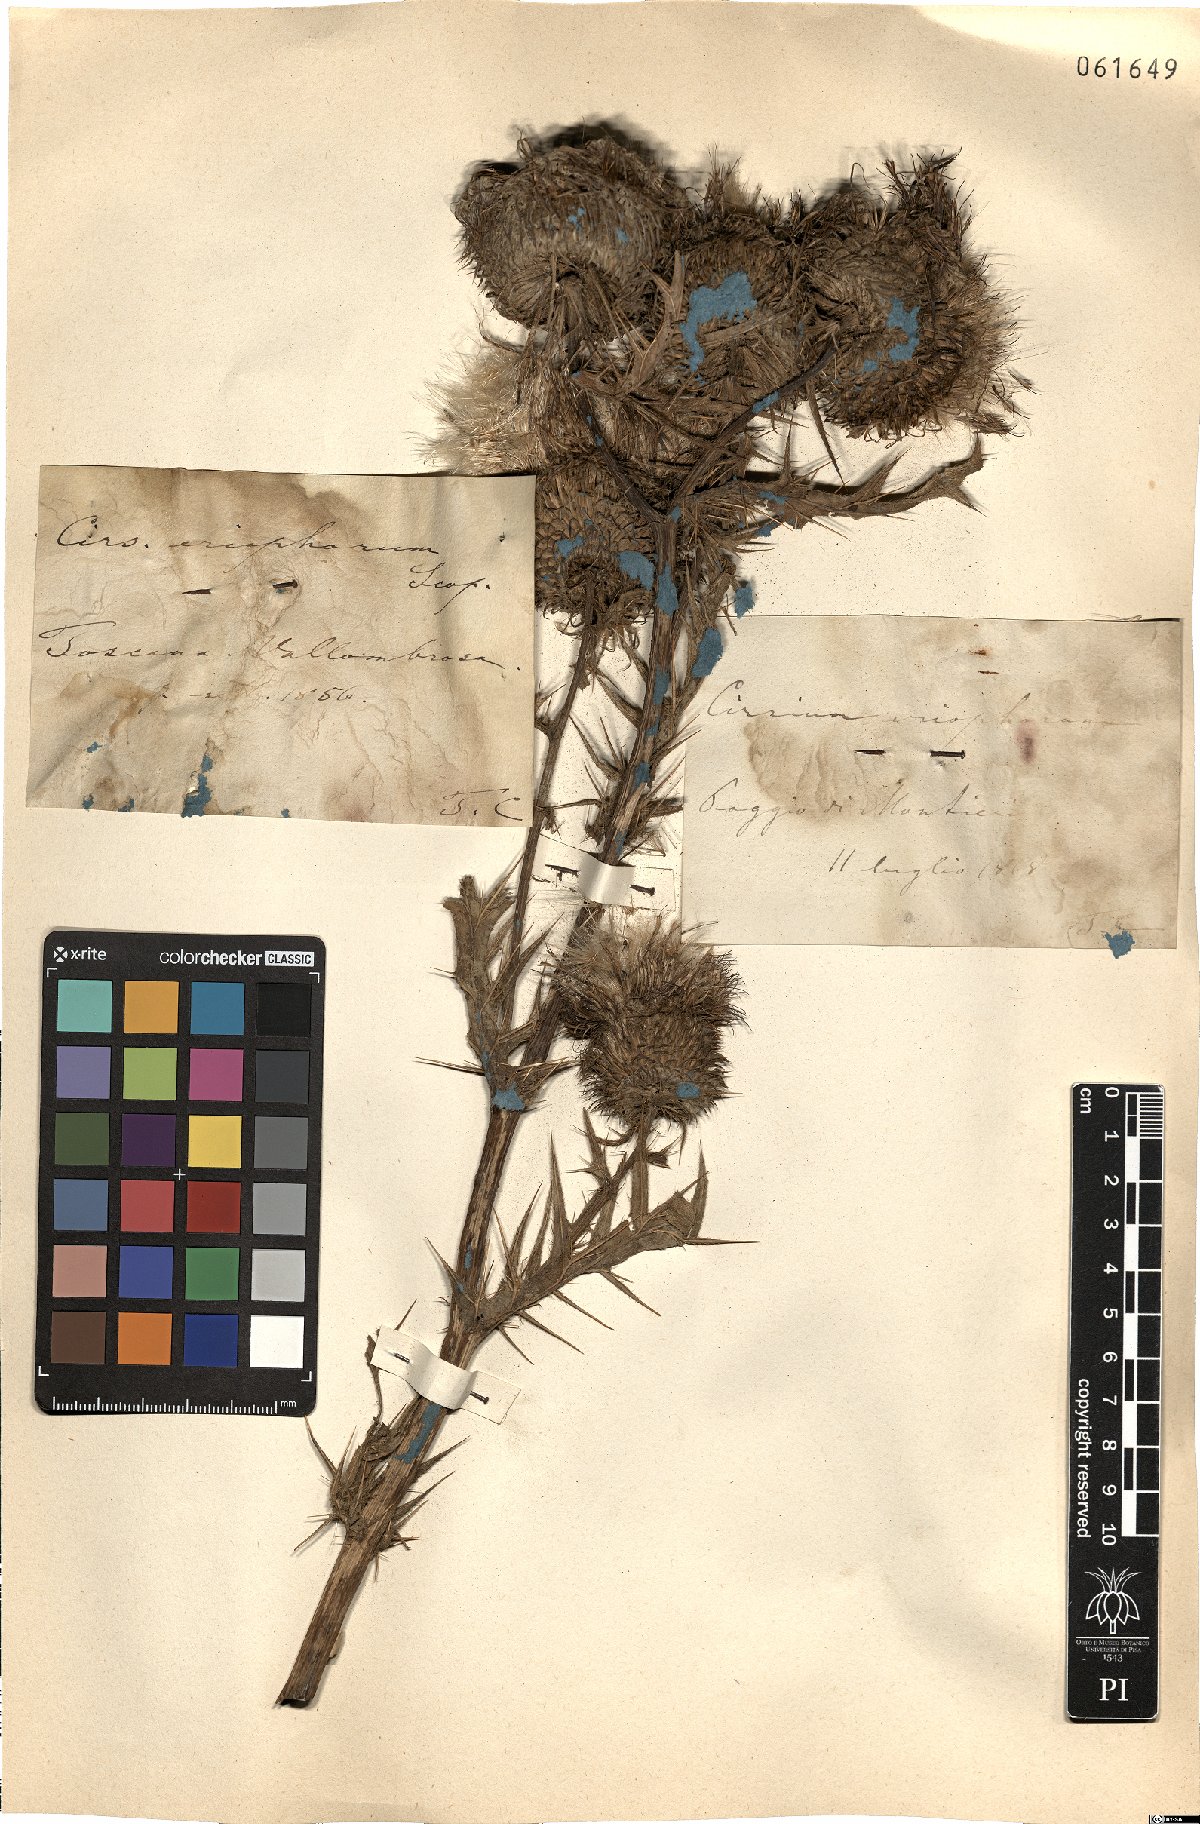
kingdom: Plantae
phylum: Tracheophyta
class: Magnoliopsida
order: Asterales
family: Asteraceae
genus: Lophiolepis
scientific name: Lophiolepis eriophora
